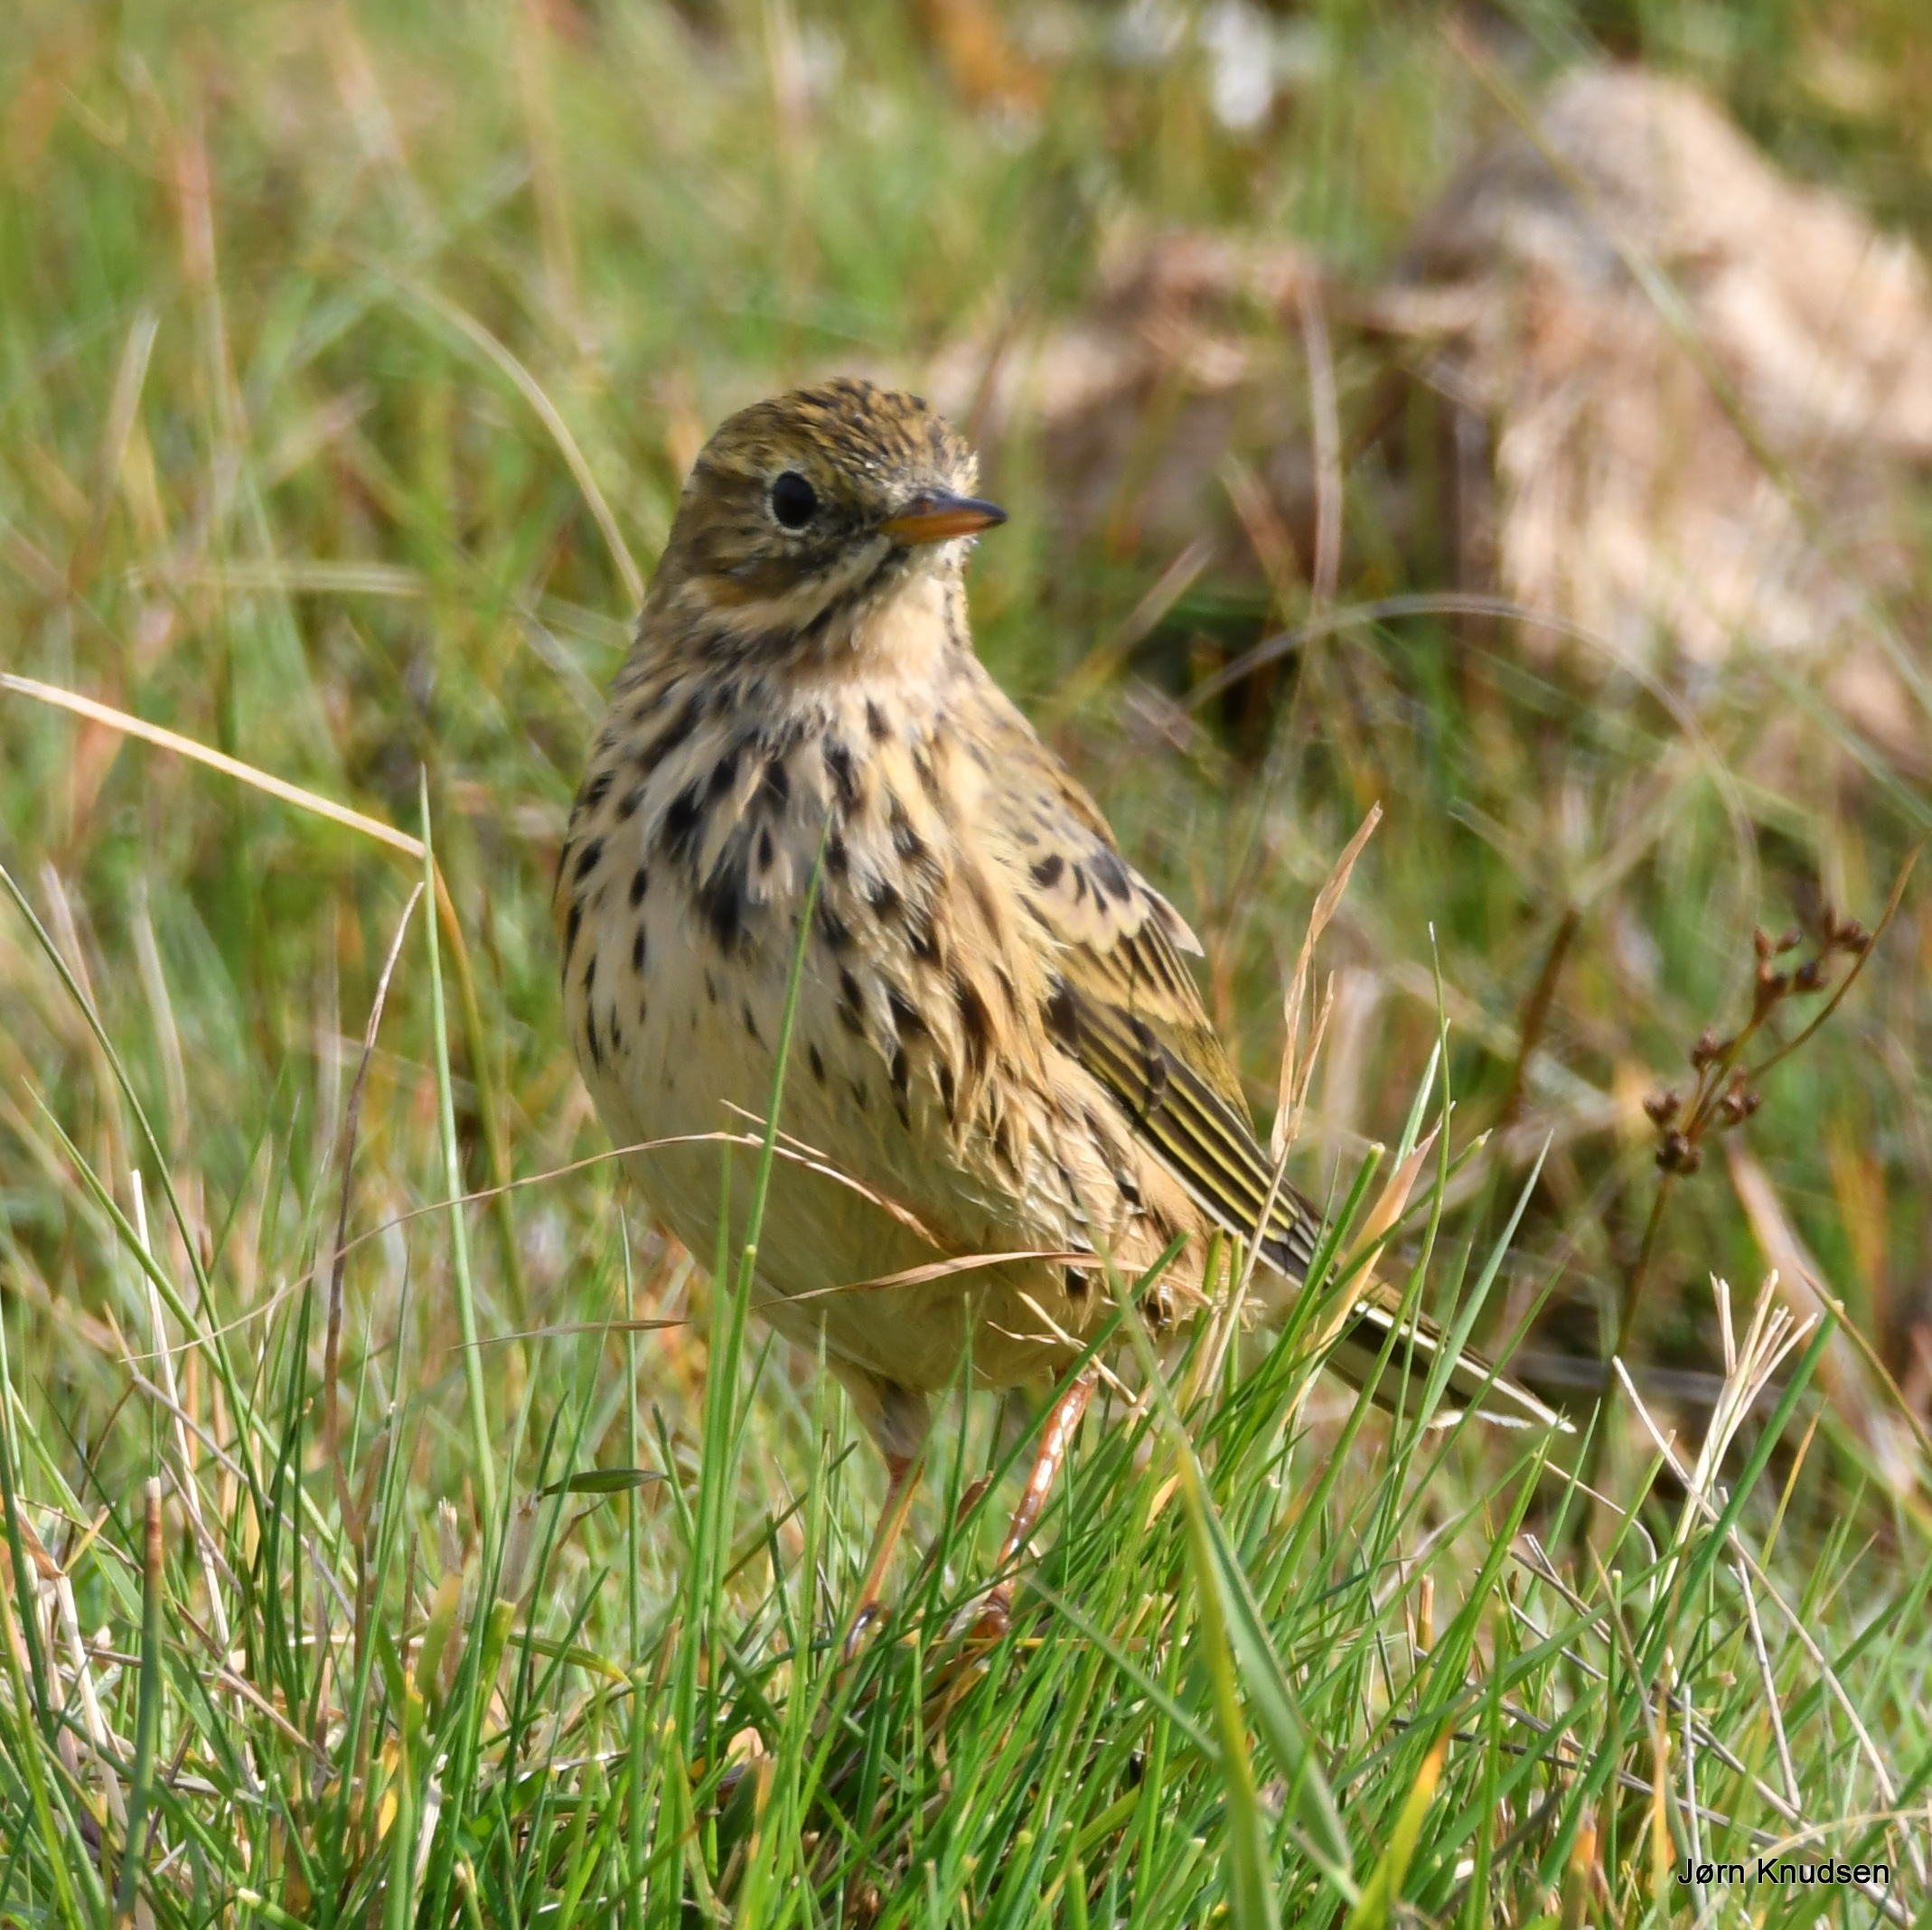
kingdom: Animalia
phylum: Chordata
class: Aves
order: Passeriformes
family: Motacillidae
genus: Anthus
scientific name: Anthus pratensis
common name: Engpiber
